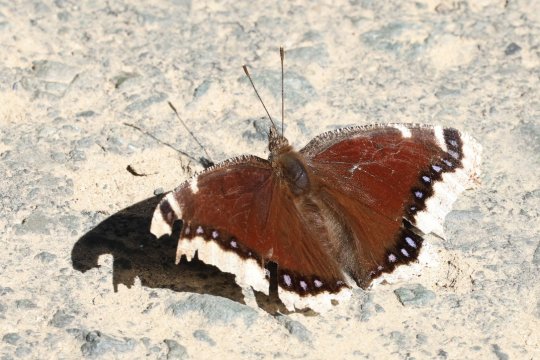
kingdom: Animalia
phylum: Arthropoda
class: Insecta
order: Lepidoptera
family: Nymphalidae
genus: Nymphalis
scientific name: Nymphalis antiopa
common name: Mourning Cloak
